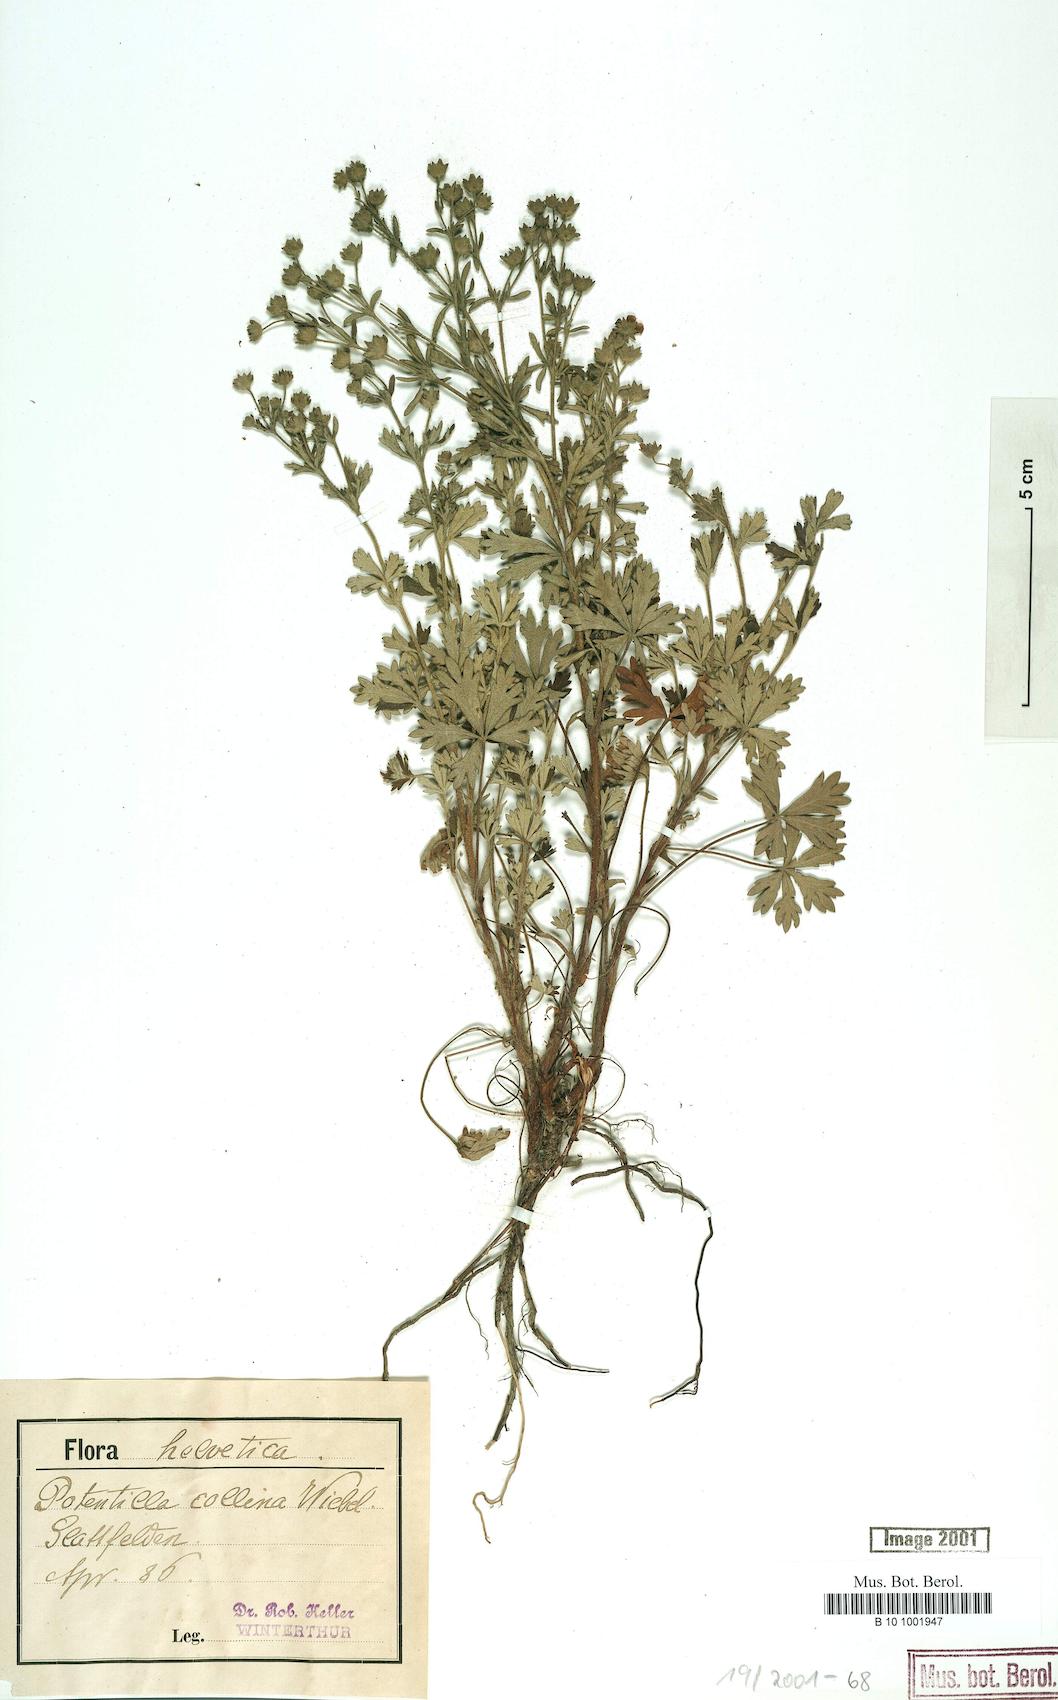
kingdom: Plantae
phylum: Tracheophyta
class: Magnoliopsida
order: Rosales
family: Rosaceae
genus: Potentilla
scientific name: Potentilla collina
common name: Palmleaf cinquefoil
